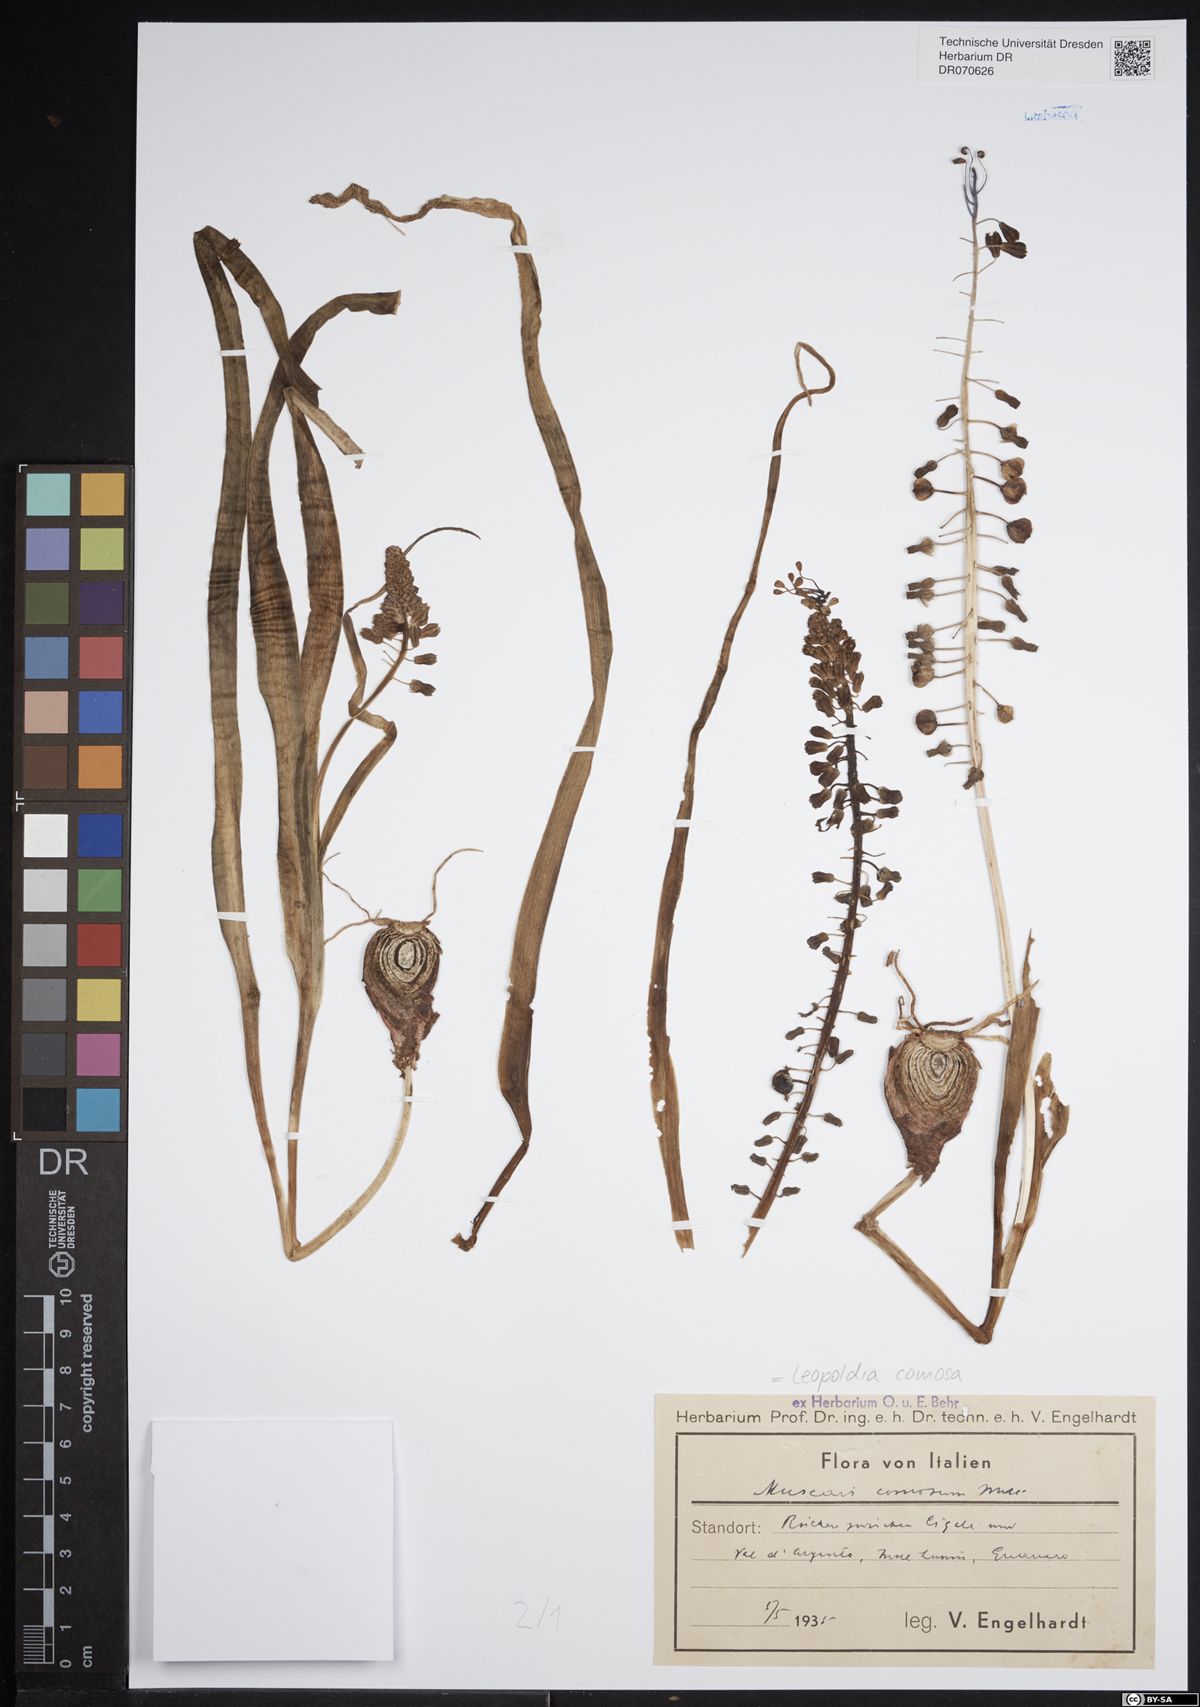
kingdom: Plantae
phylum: Tracheophyta
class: Liliopsida
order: Asparagales
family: Asparagaceae
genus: Muscari
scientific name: Muscari comosum
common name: Tassel hyacinth
